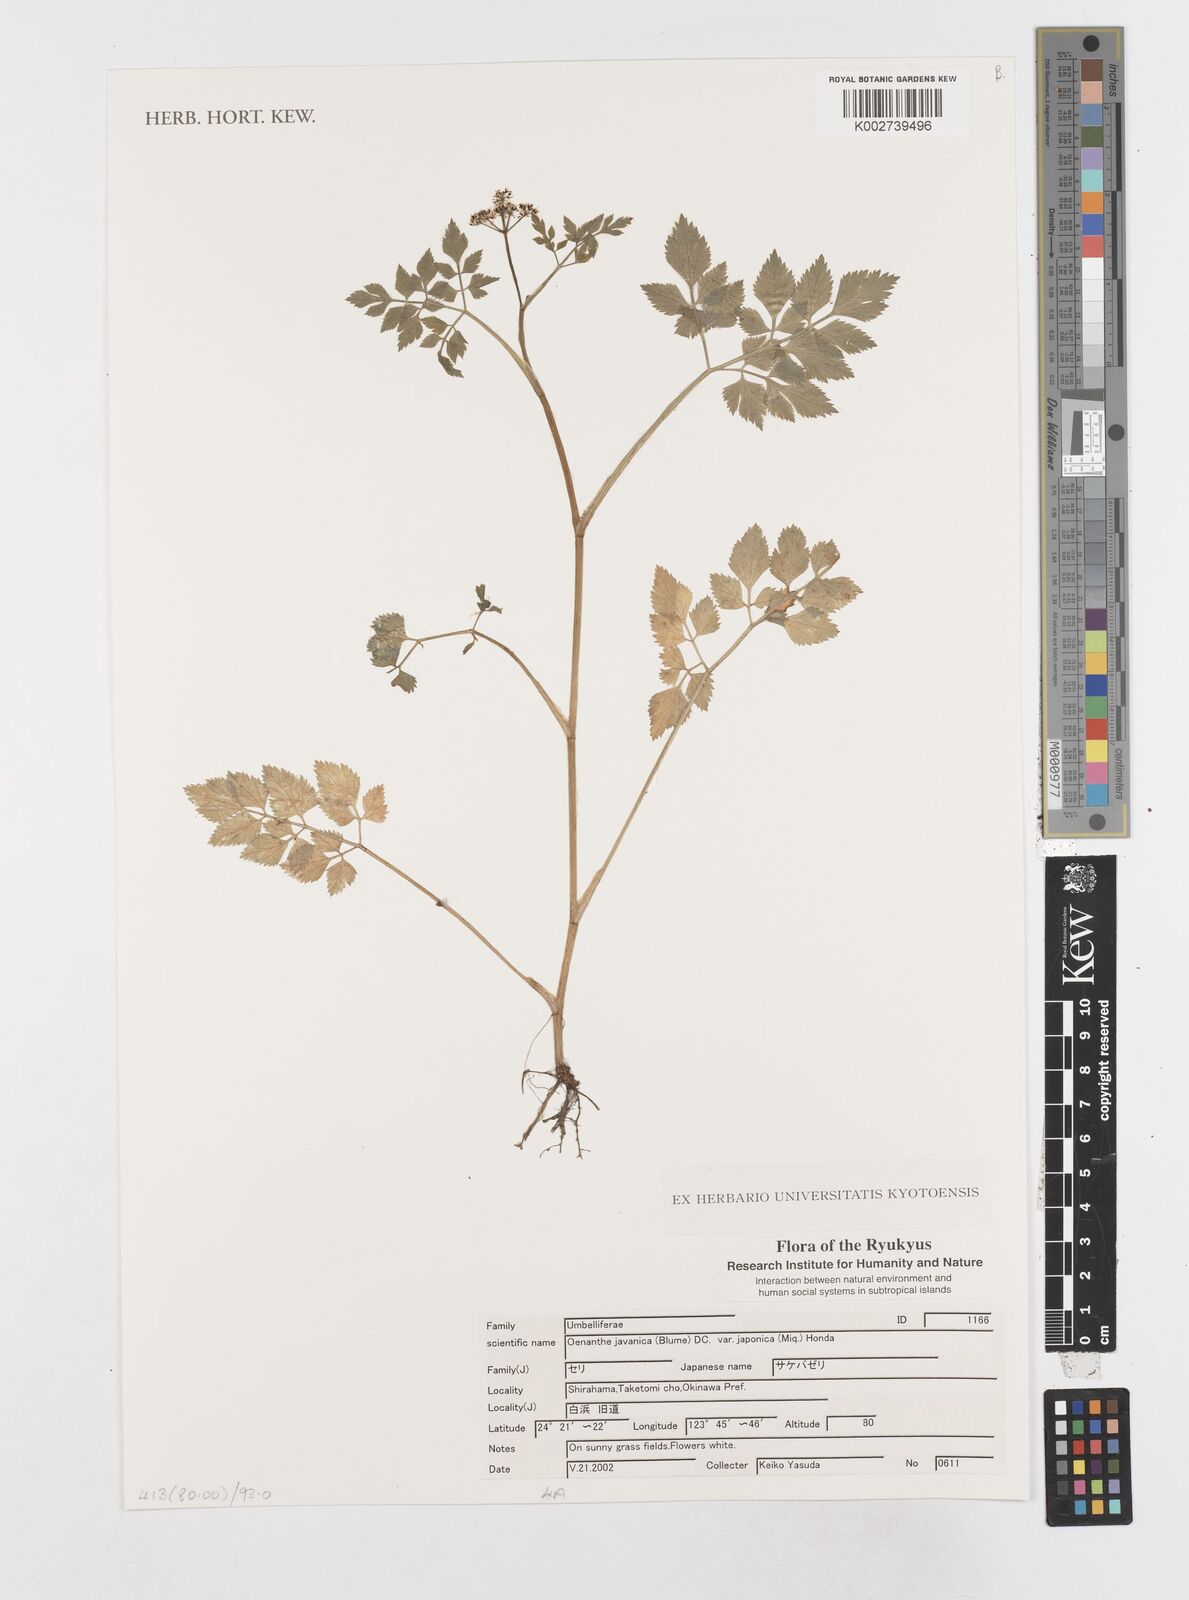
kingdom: Plantae
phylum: Tracheophyta
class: Magnoliopsida
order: Apiales
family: Apiaceae
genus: Oenanthe
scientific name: Oenanthe
